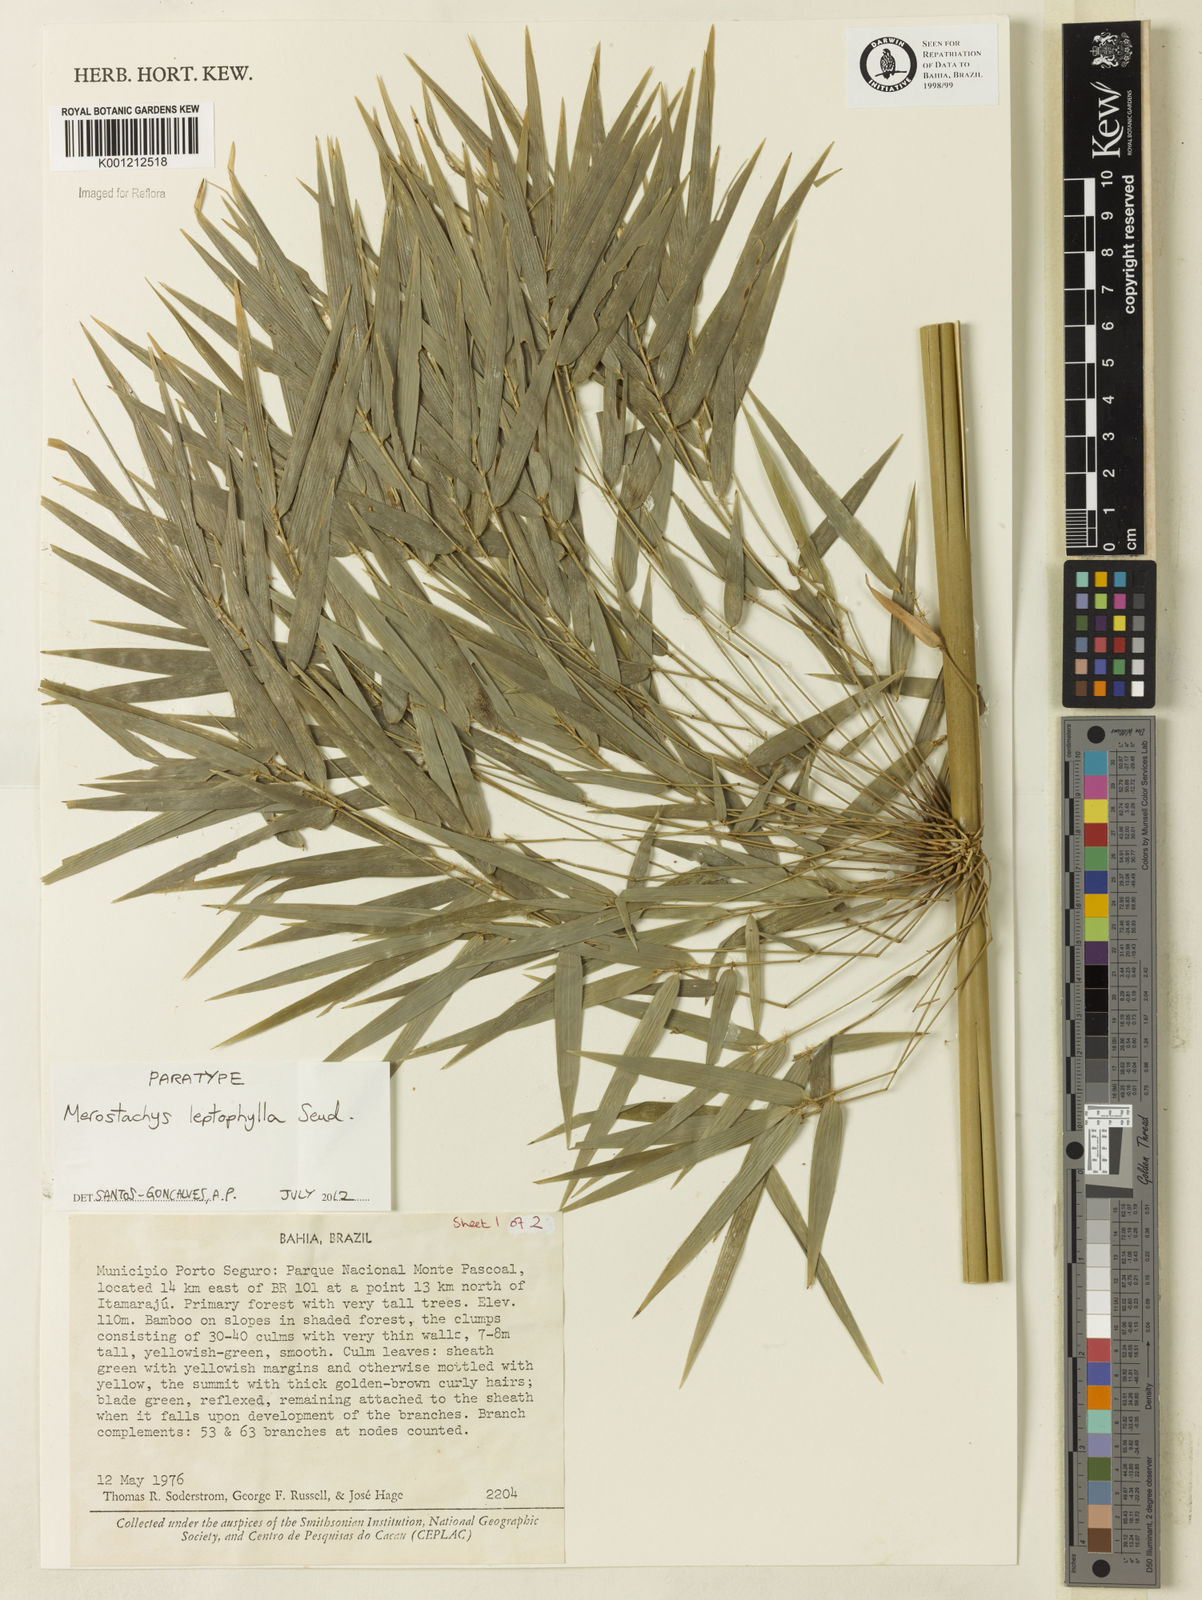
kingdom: Plantae
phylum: Tracheophyta
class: Liliopsida
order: Poales
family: Poaceae
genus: Merostachys
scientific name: Merostachys leptophylla
